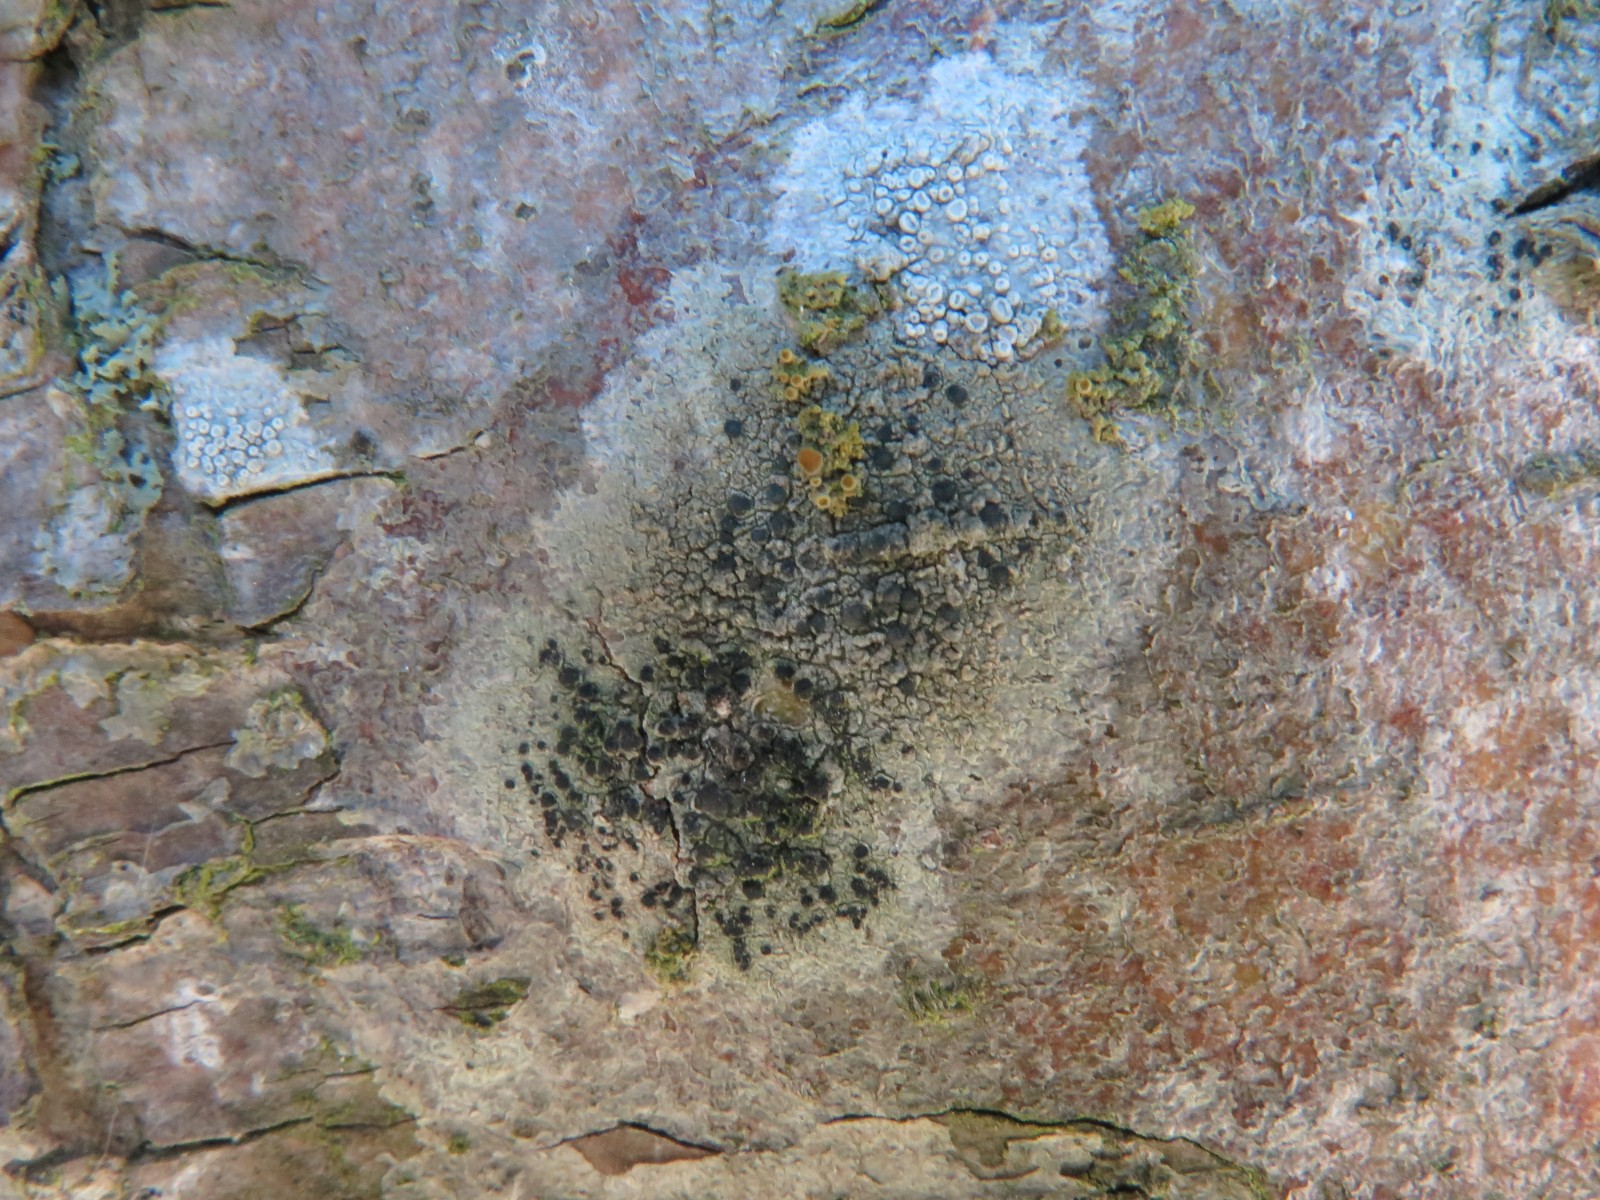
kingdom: Fungi
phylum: Ascomycota
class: Lecanoromycetes
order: Lecanorales
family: Lecanoraceae
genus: Lecidella
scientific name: Lecidella elaeochroma
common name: grågrøn skivelav
